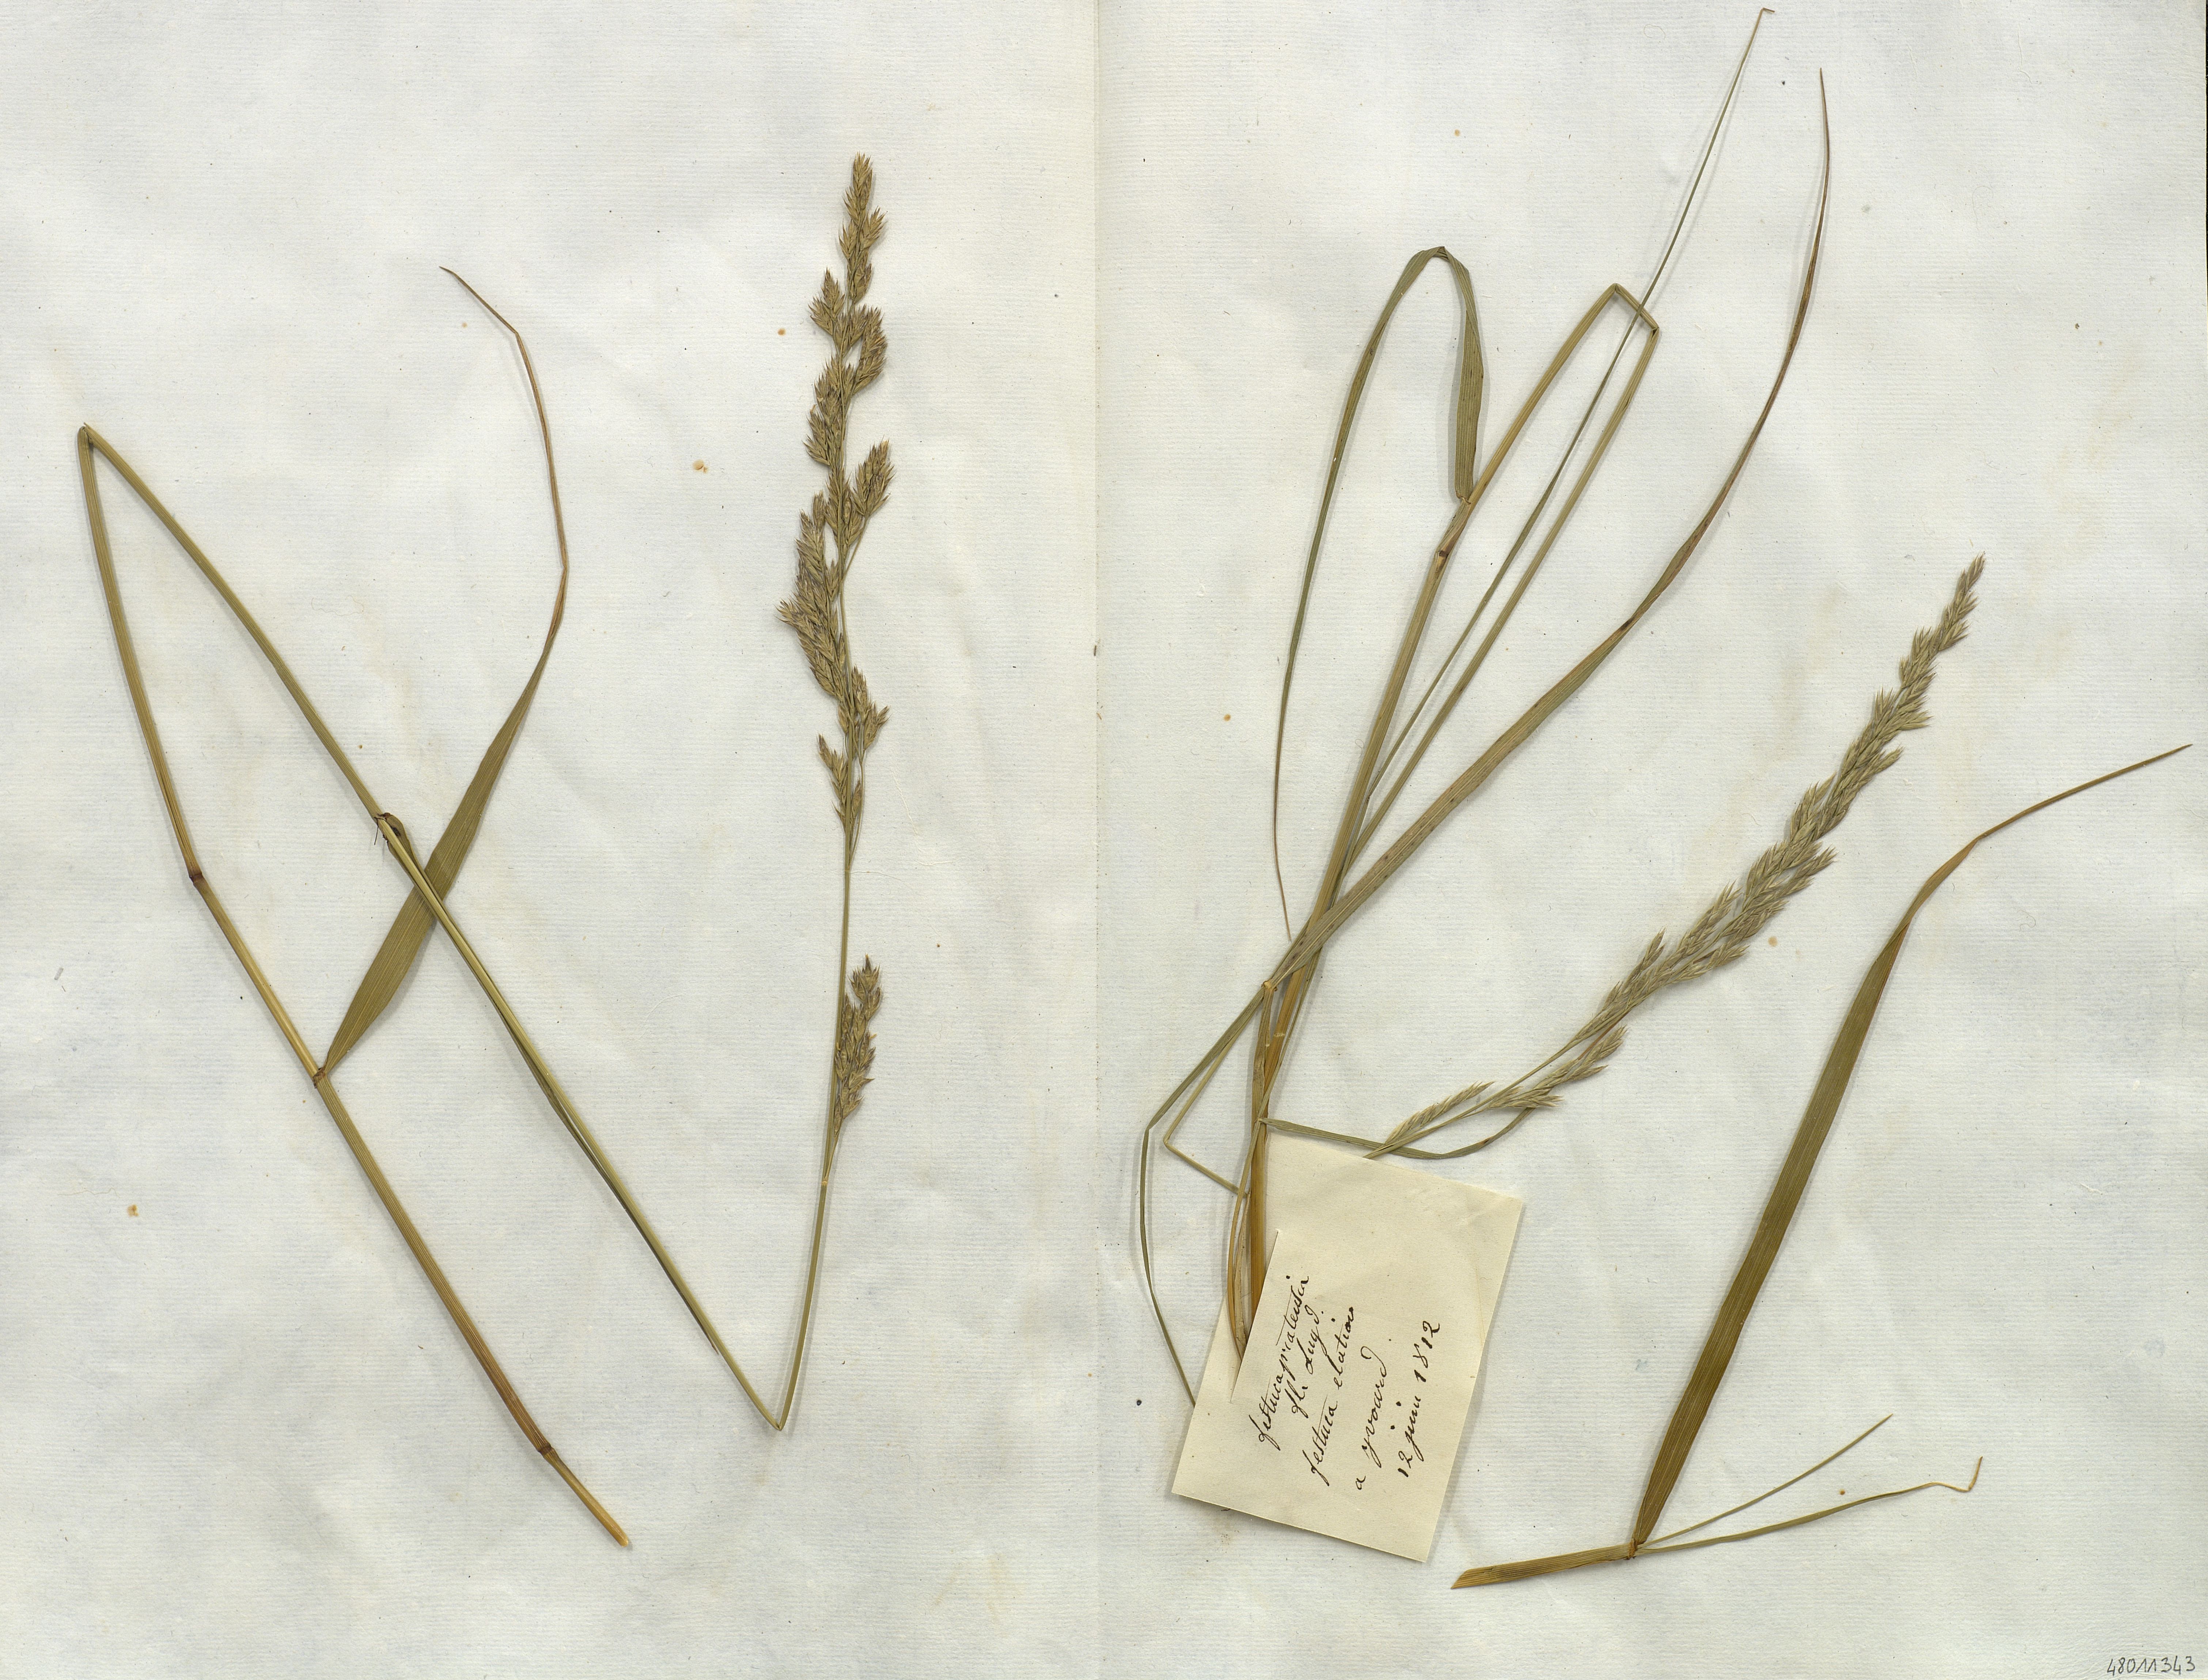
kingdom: Plantae
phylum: Tracheophyta
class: Liliopsida
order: Poales
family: Poaceae
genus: Festuca
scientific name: Festuca
